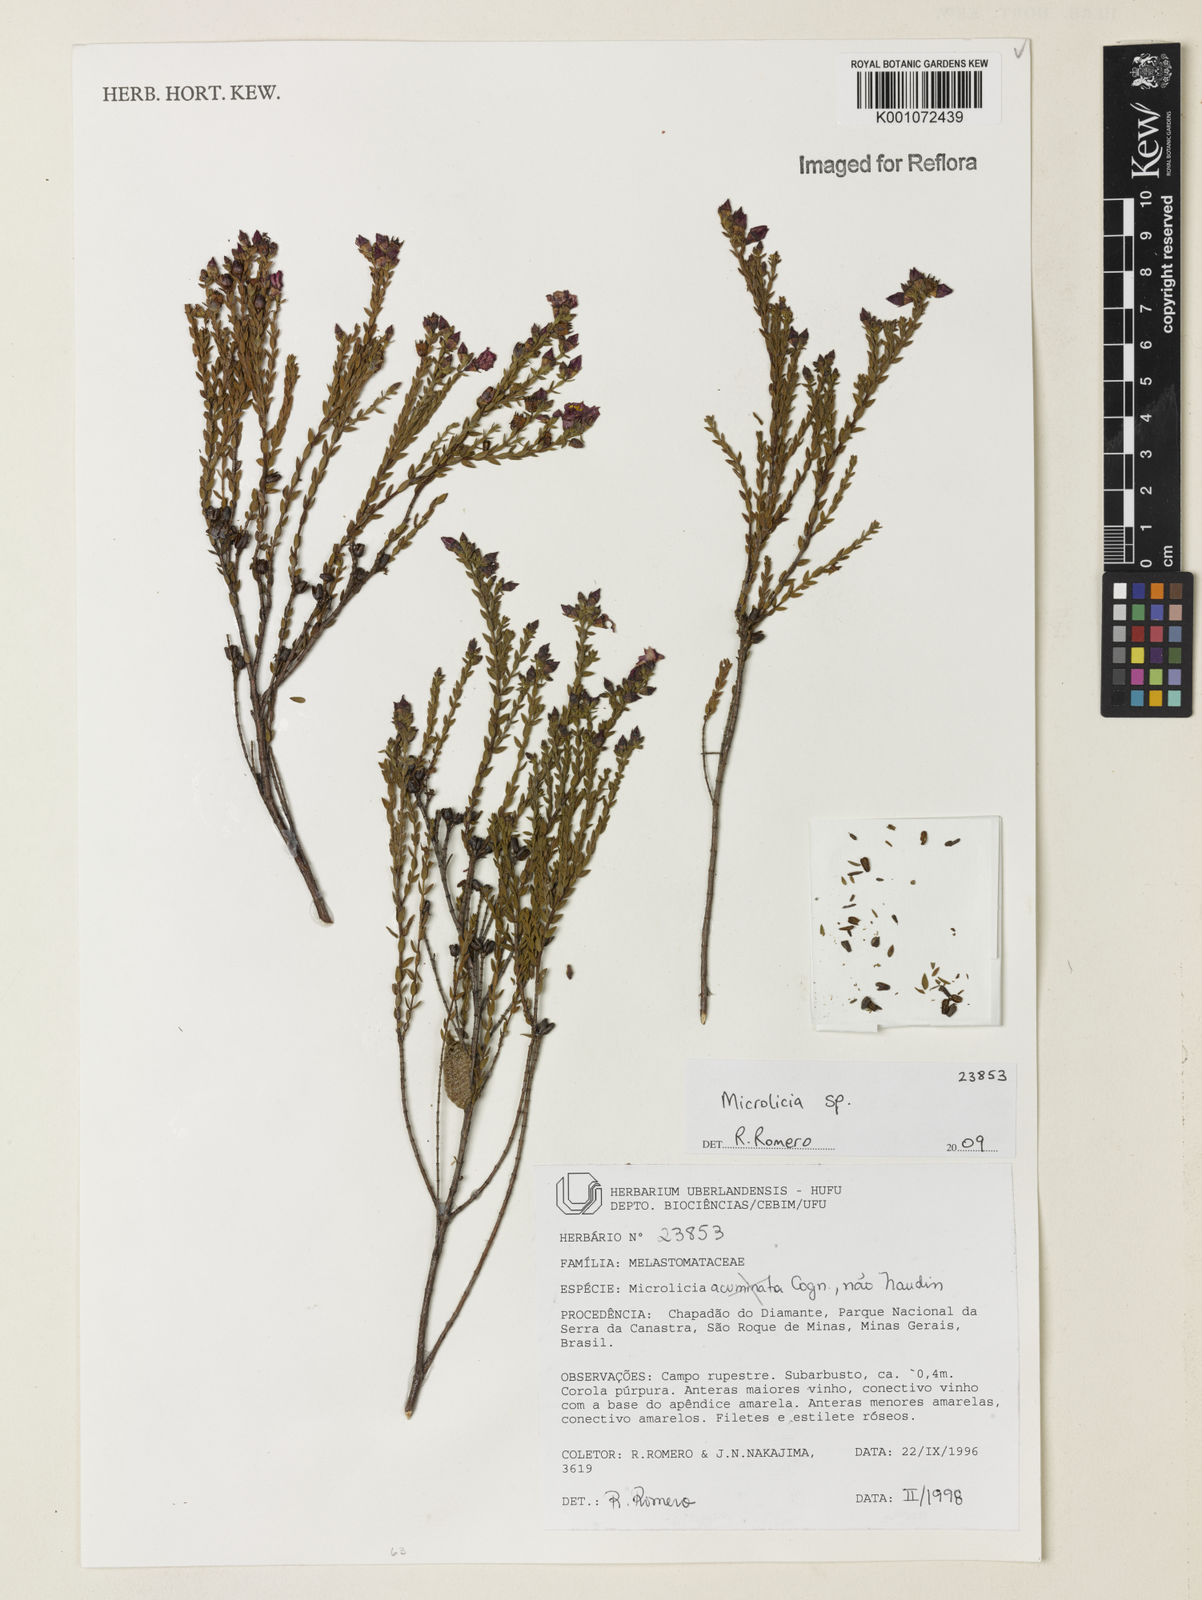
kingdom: Plantae
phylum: Tracheophyta
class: Magnoliopsida
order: Myrtales
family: Melastomataceae
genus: Microlicia
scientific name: Microlicia
